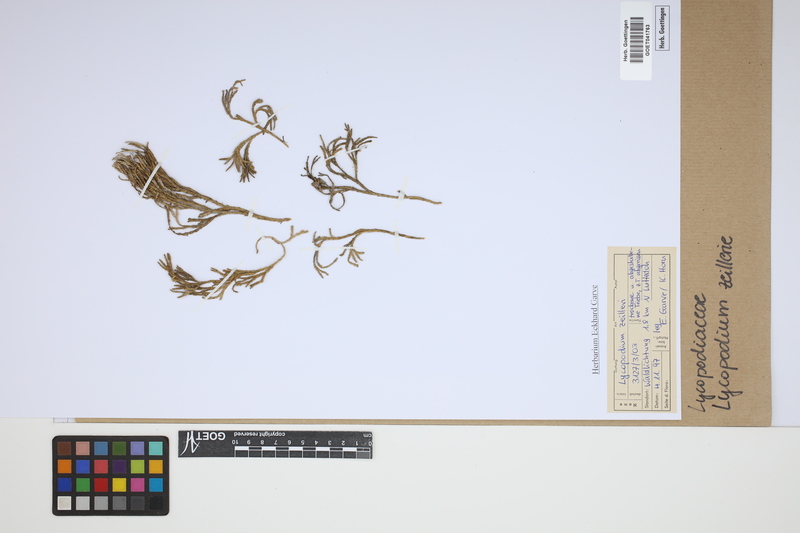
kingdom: Plantae
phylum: Tracheophyta
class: Lycopodiopsida
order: Lycopodiales
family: Lycopodiaceae
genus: Diphasiastrum
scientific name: Diphasiastrum zeilleri
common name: Zeiller's clubmoss
